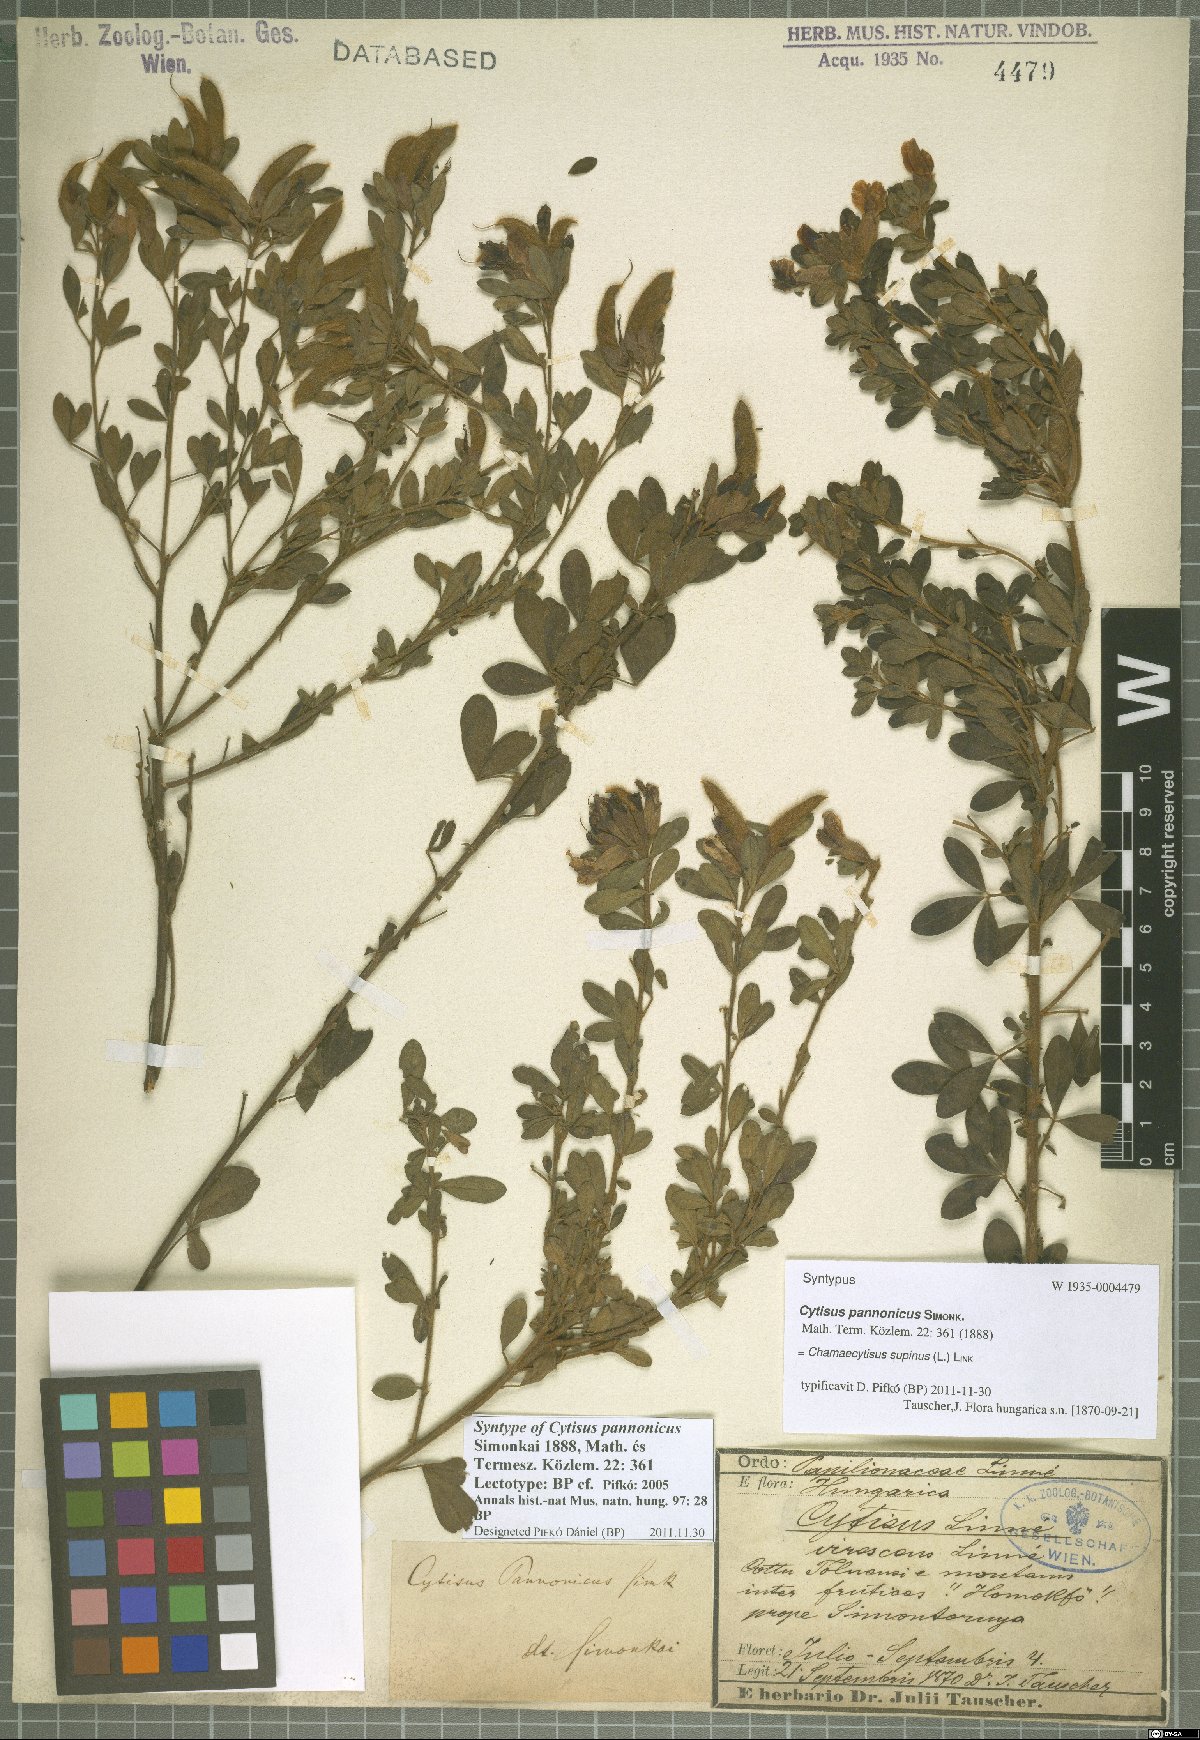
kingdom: Plantae
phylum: Tracheophyta
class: Magnoliopsida
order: Fabales
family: Fabaceae
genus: Chamaecytisus
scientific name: Chamaecytisus supinus
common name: Clustered broom
